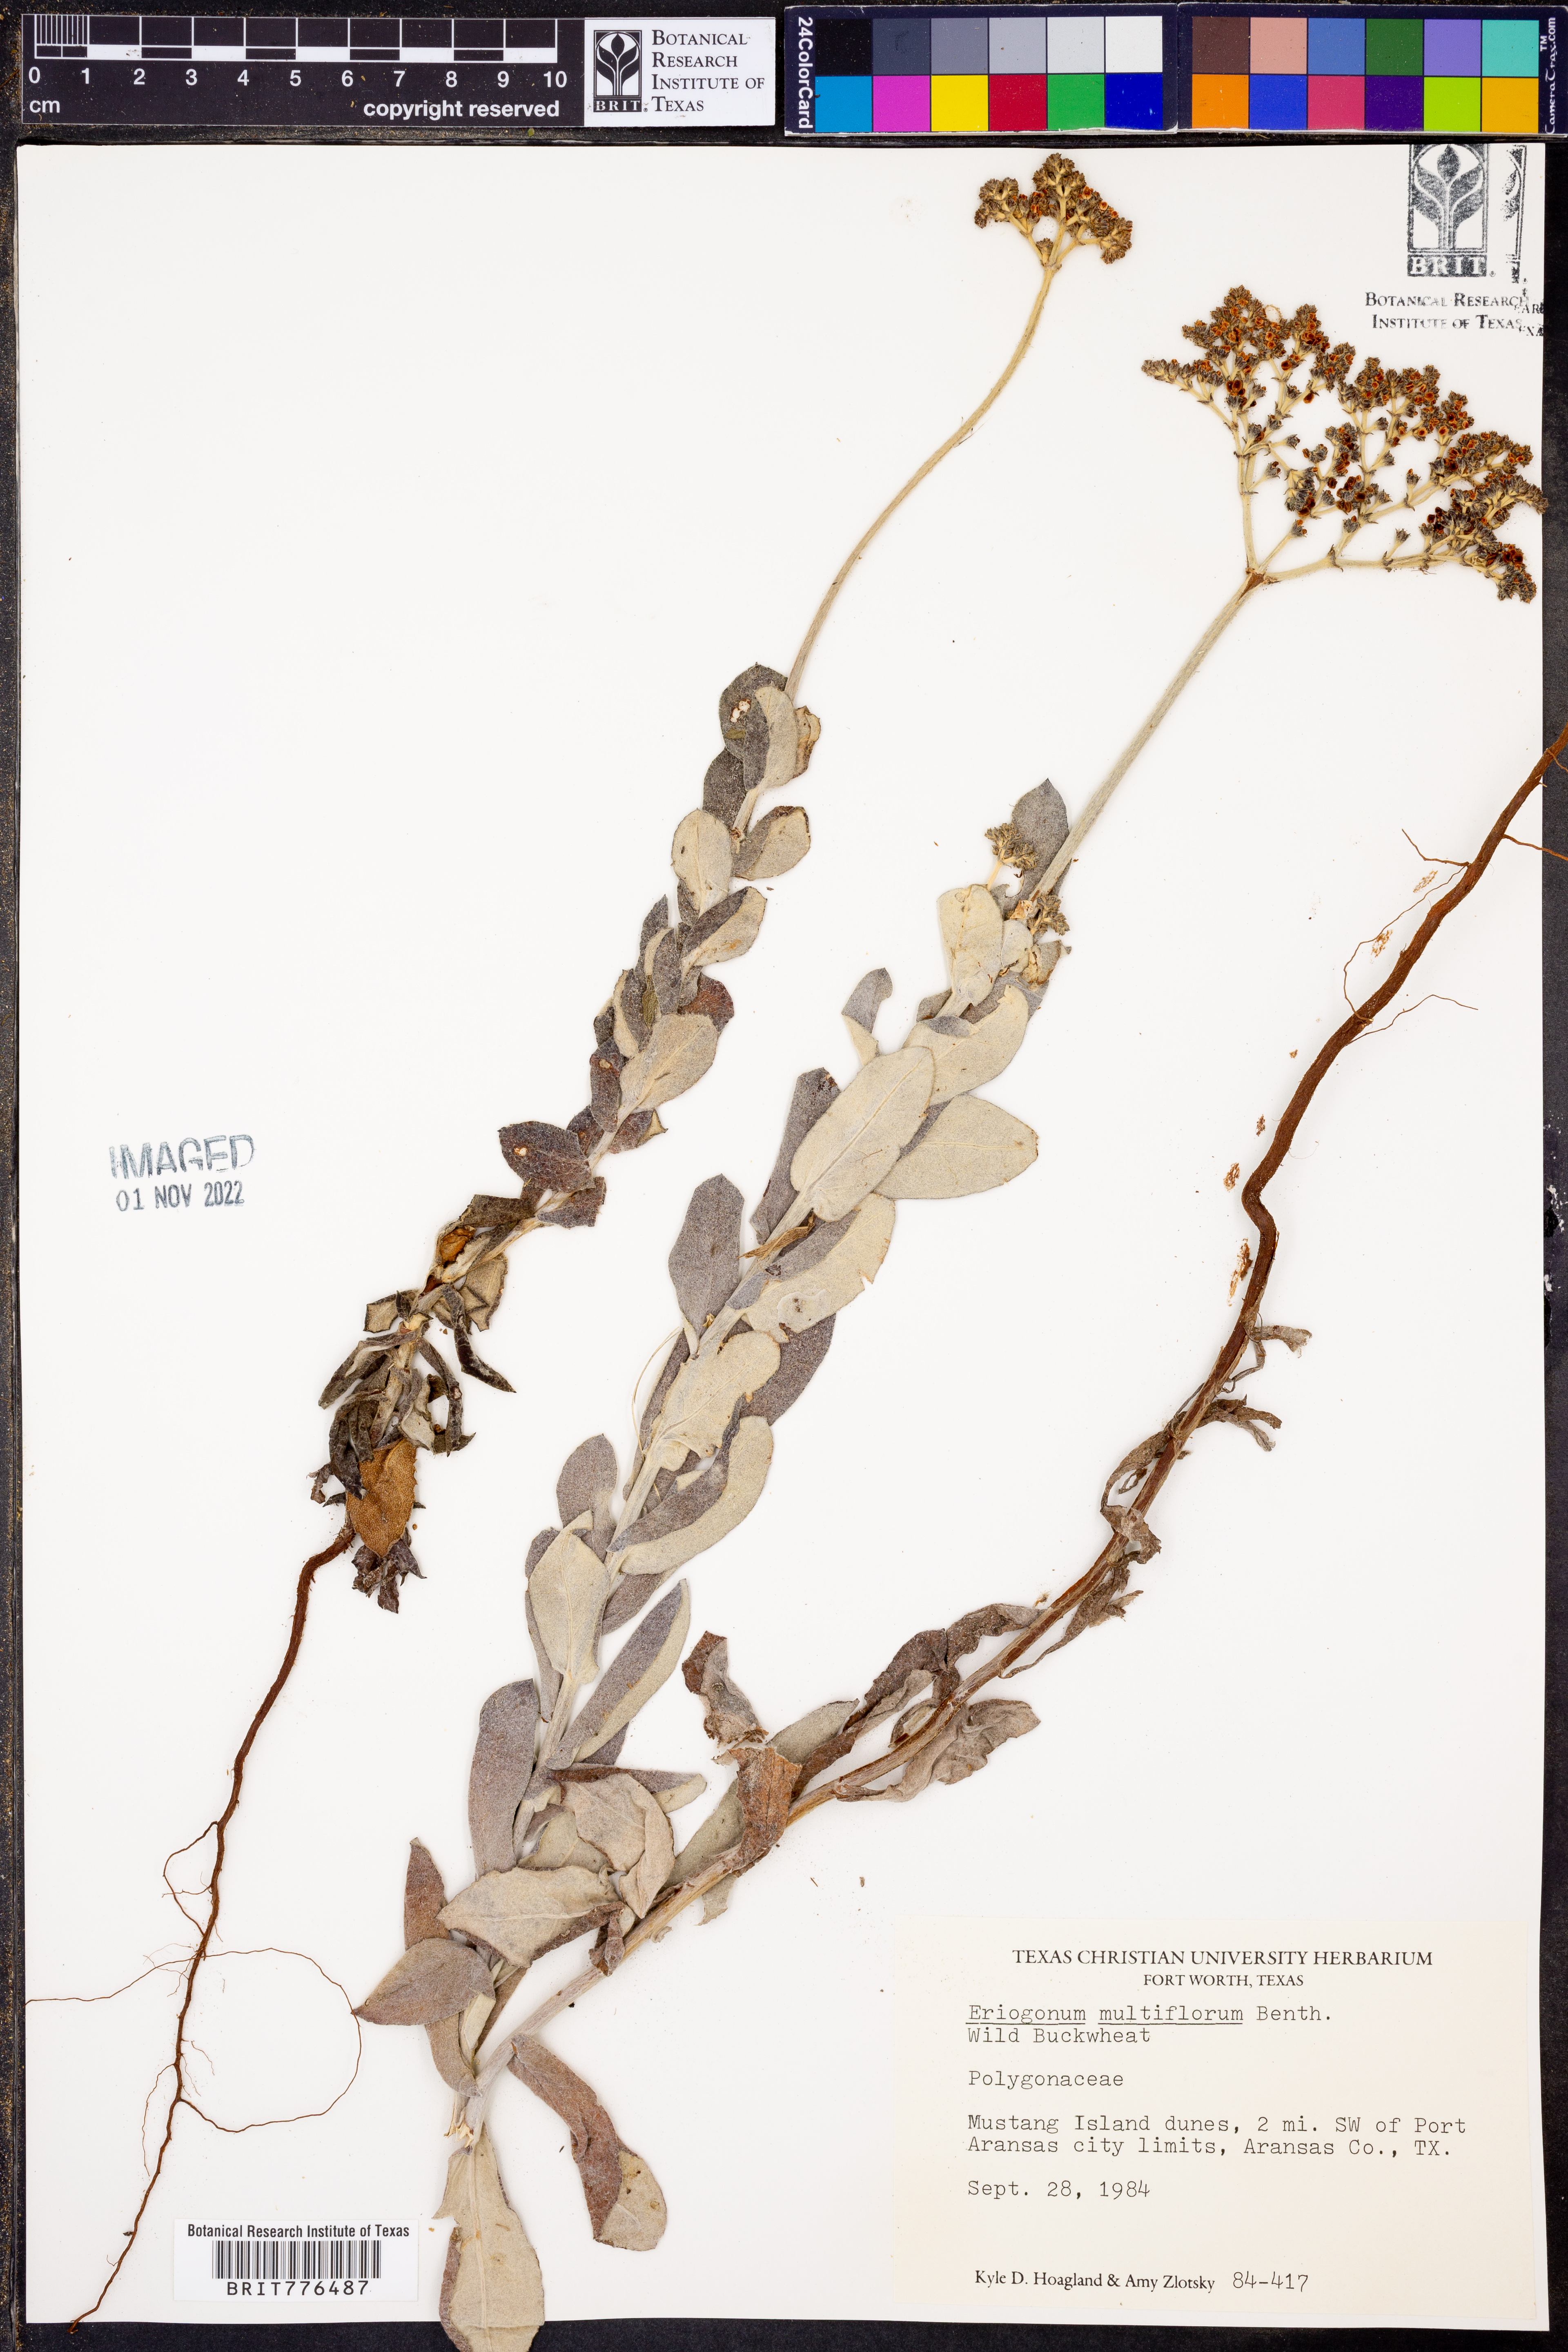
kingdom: Plantae
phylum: Tracheophyta
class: Magnoliopsida
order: Caryophyllales
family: Polygonaceae
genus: Eriogonum
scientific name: Eriogonum multiflorum
